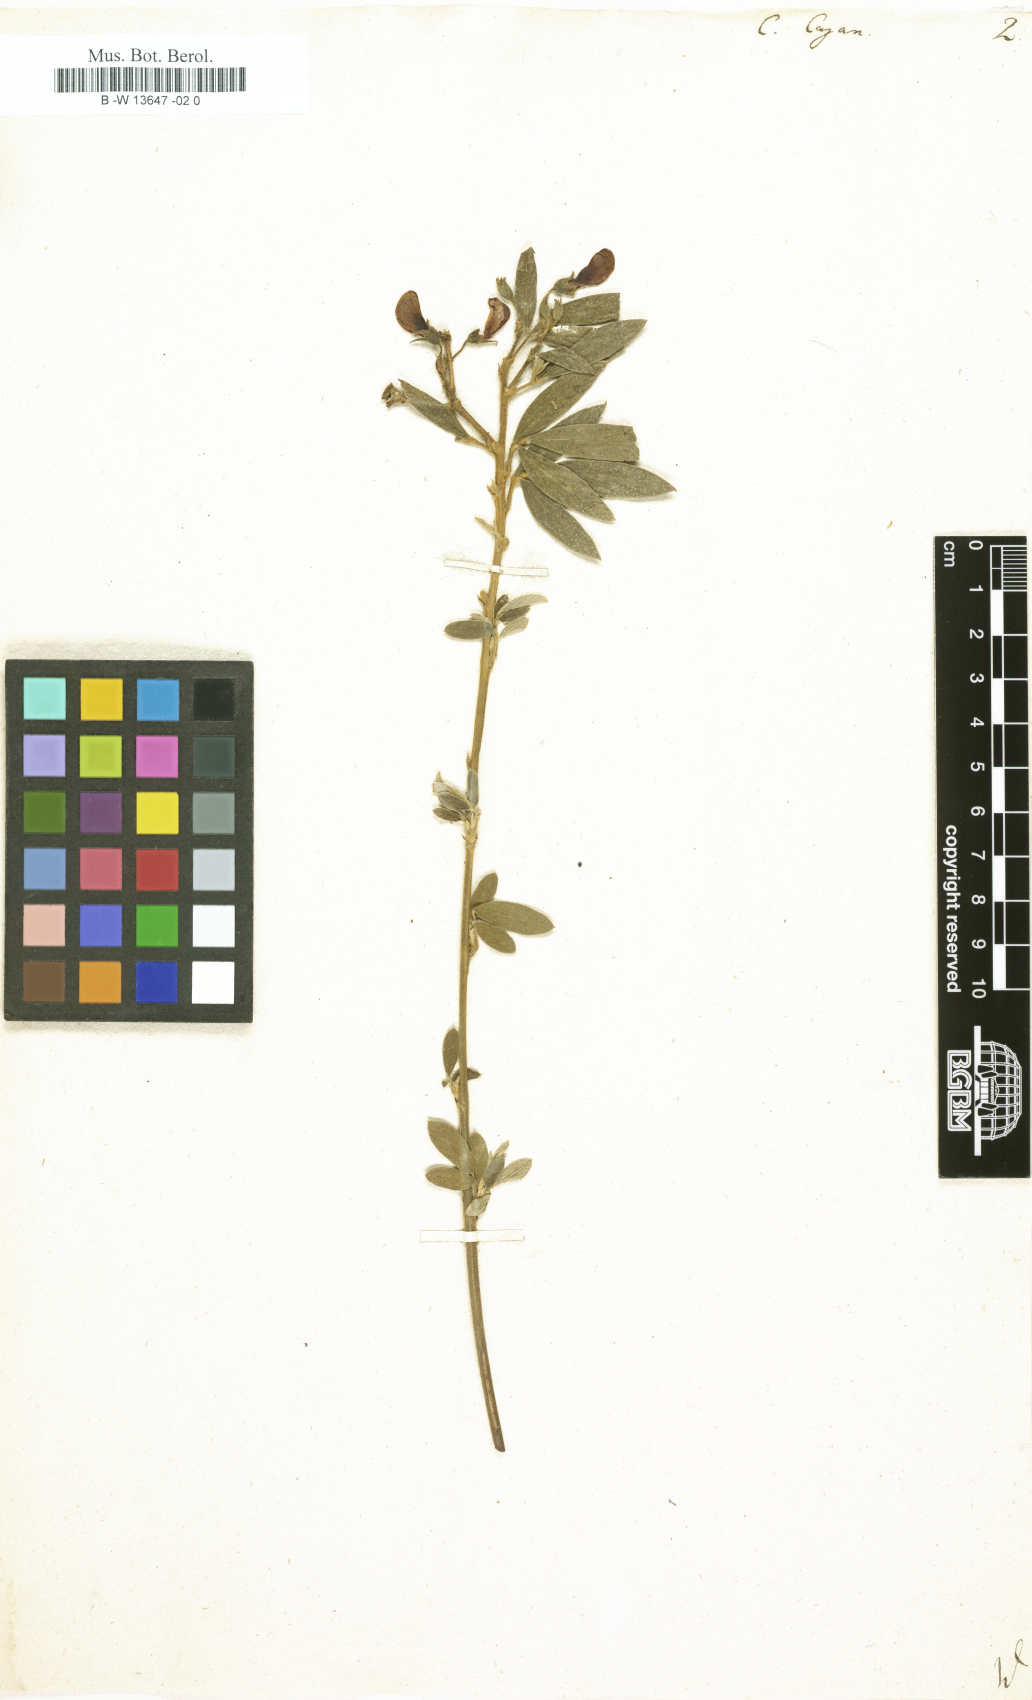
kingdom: Plantae
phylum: Tracheophyta
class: Magnoliopsida
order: Fabales
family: Fabaceae
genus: Cajanus
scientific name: Cajanus cajan
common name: Pigeonpea
